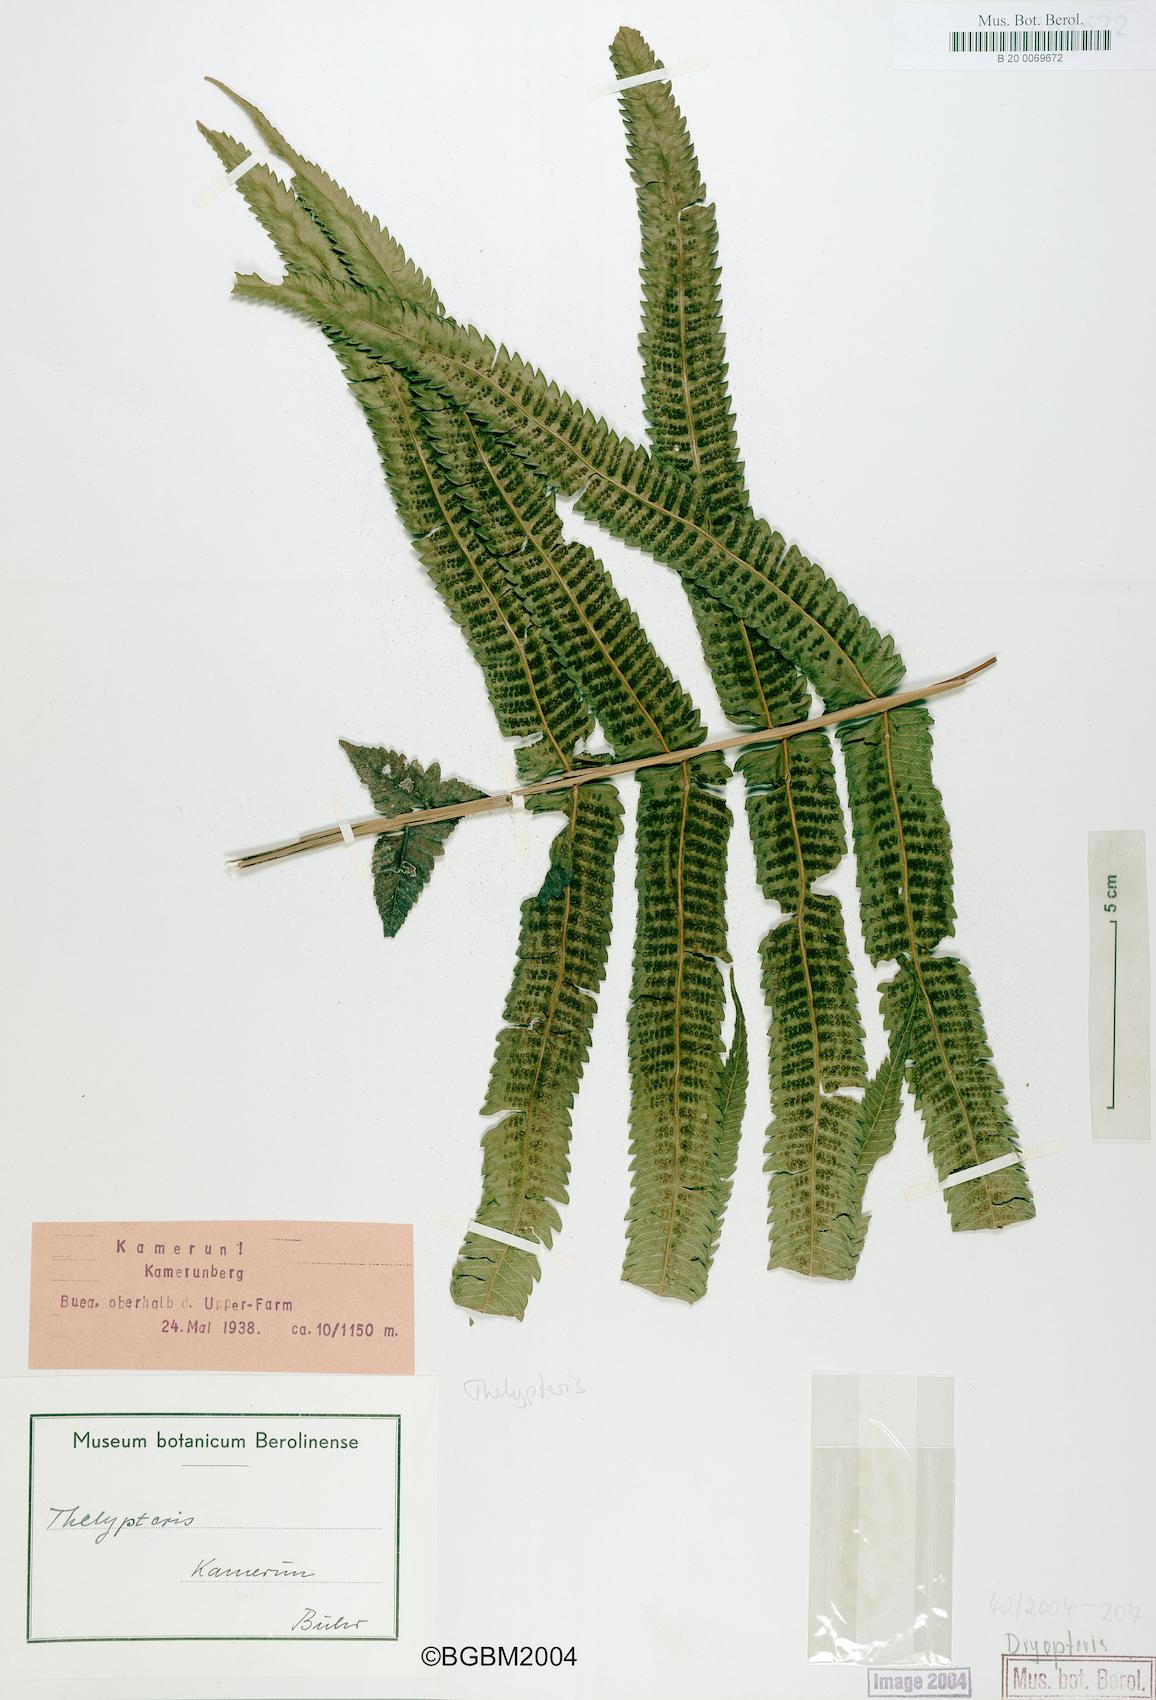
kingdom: Plantae
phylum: Tracheophyta
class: Polypodiopsida
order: Polypodiales
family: Dryopteridaceae
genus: Dryopteris
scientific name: Dryopteris
